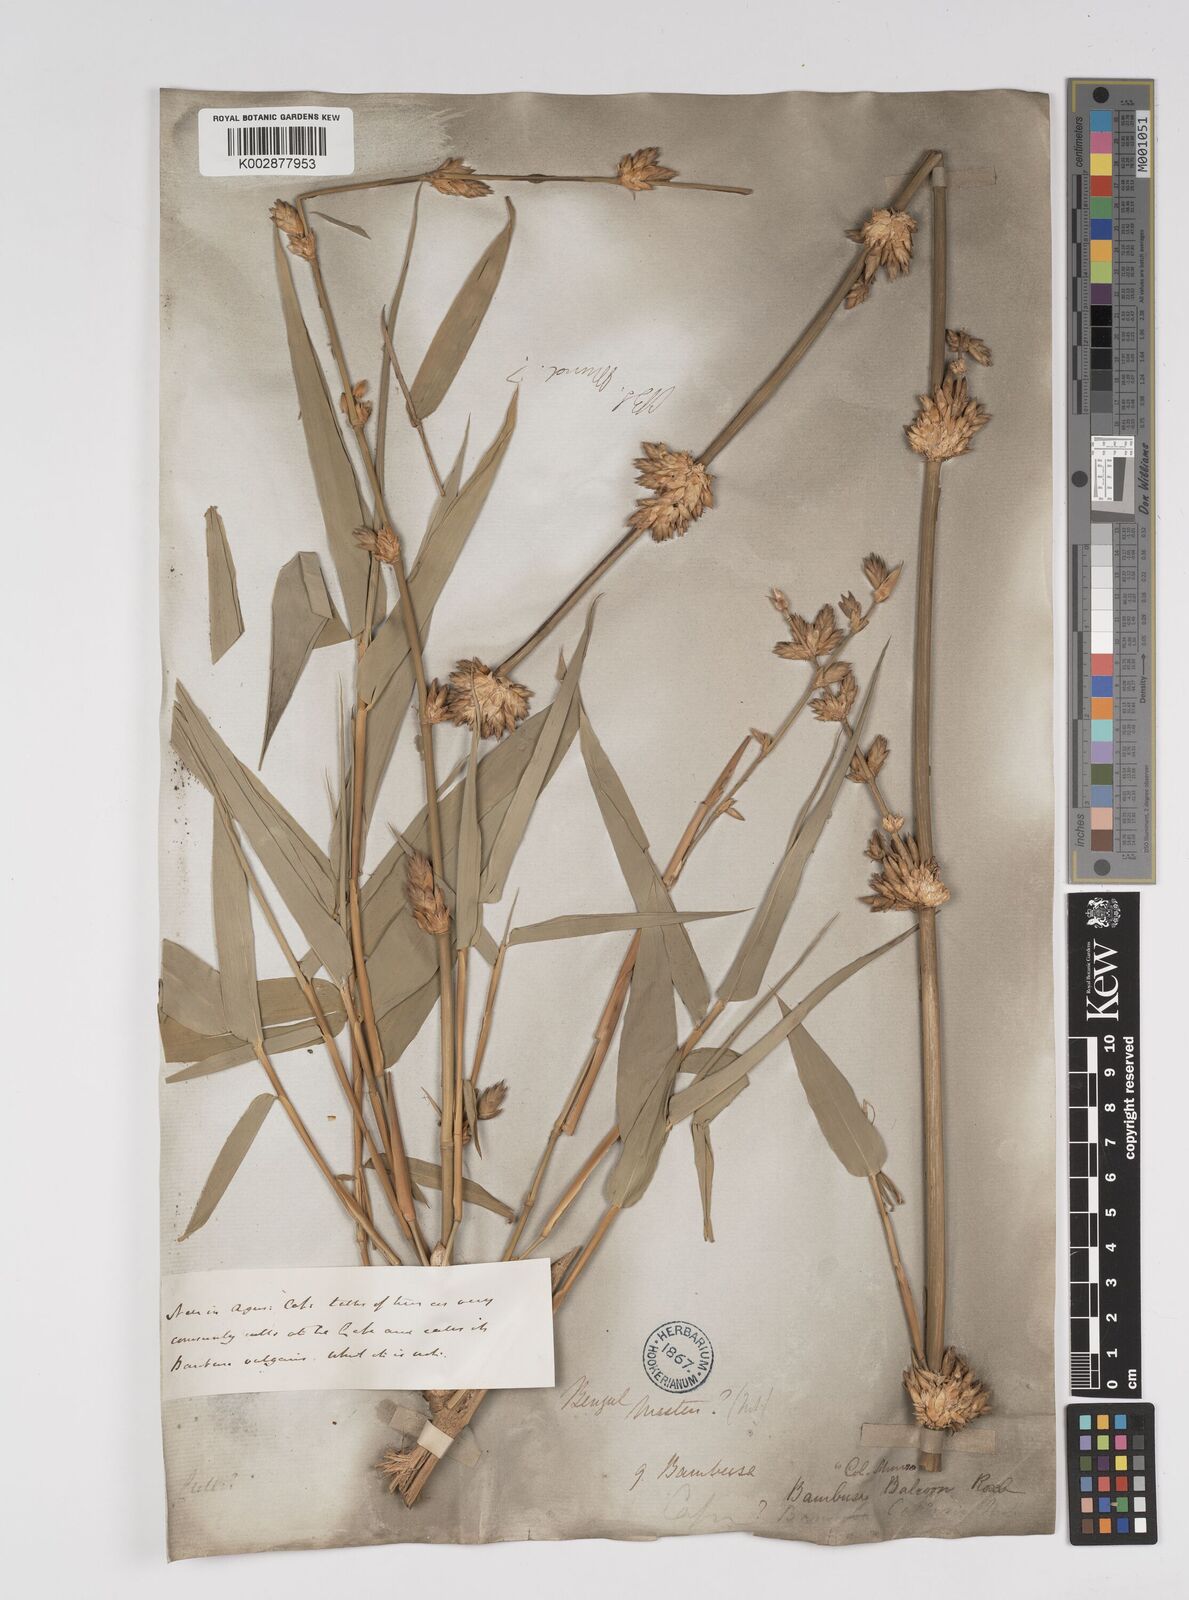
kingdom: Plantae
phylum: Tracheophyta
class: Liliopsida
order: Poales
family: Poaceae
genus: Bambusa
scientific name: Bambusa balcooa
